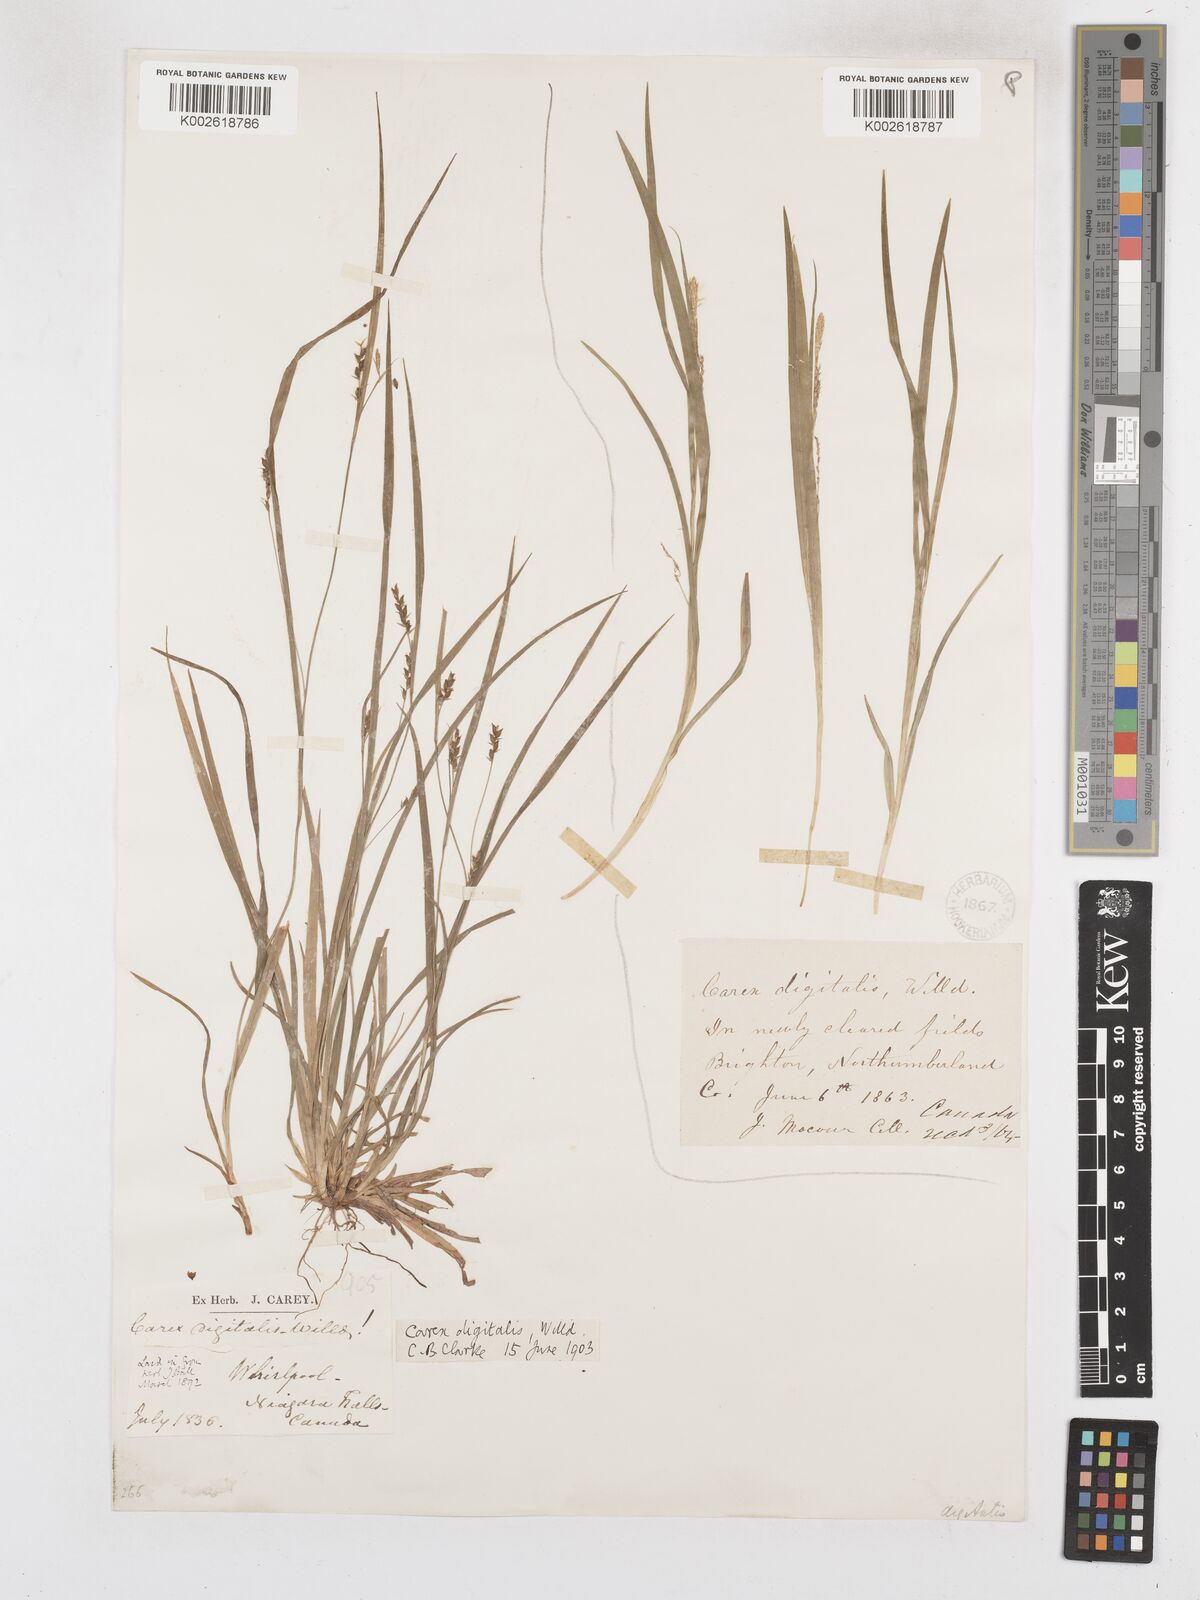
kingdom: Plantae
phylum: Tracheophyta
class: Liliopsida
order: Poales
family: Cyperaceae
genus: Carex
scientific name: Carex digitalis
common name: Slender wood sedge
